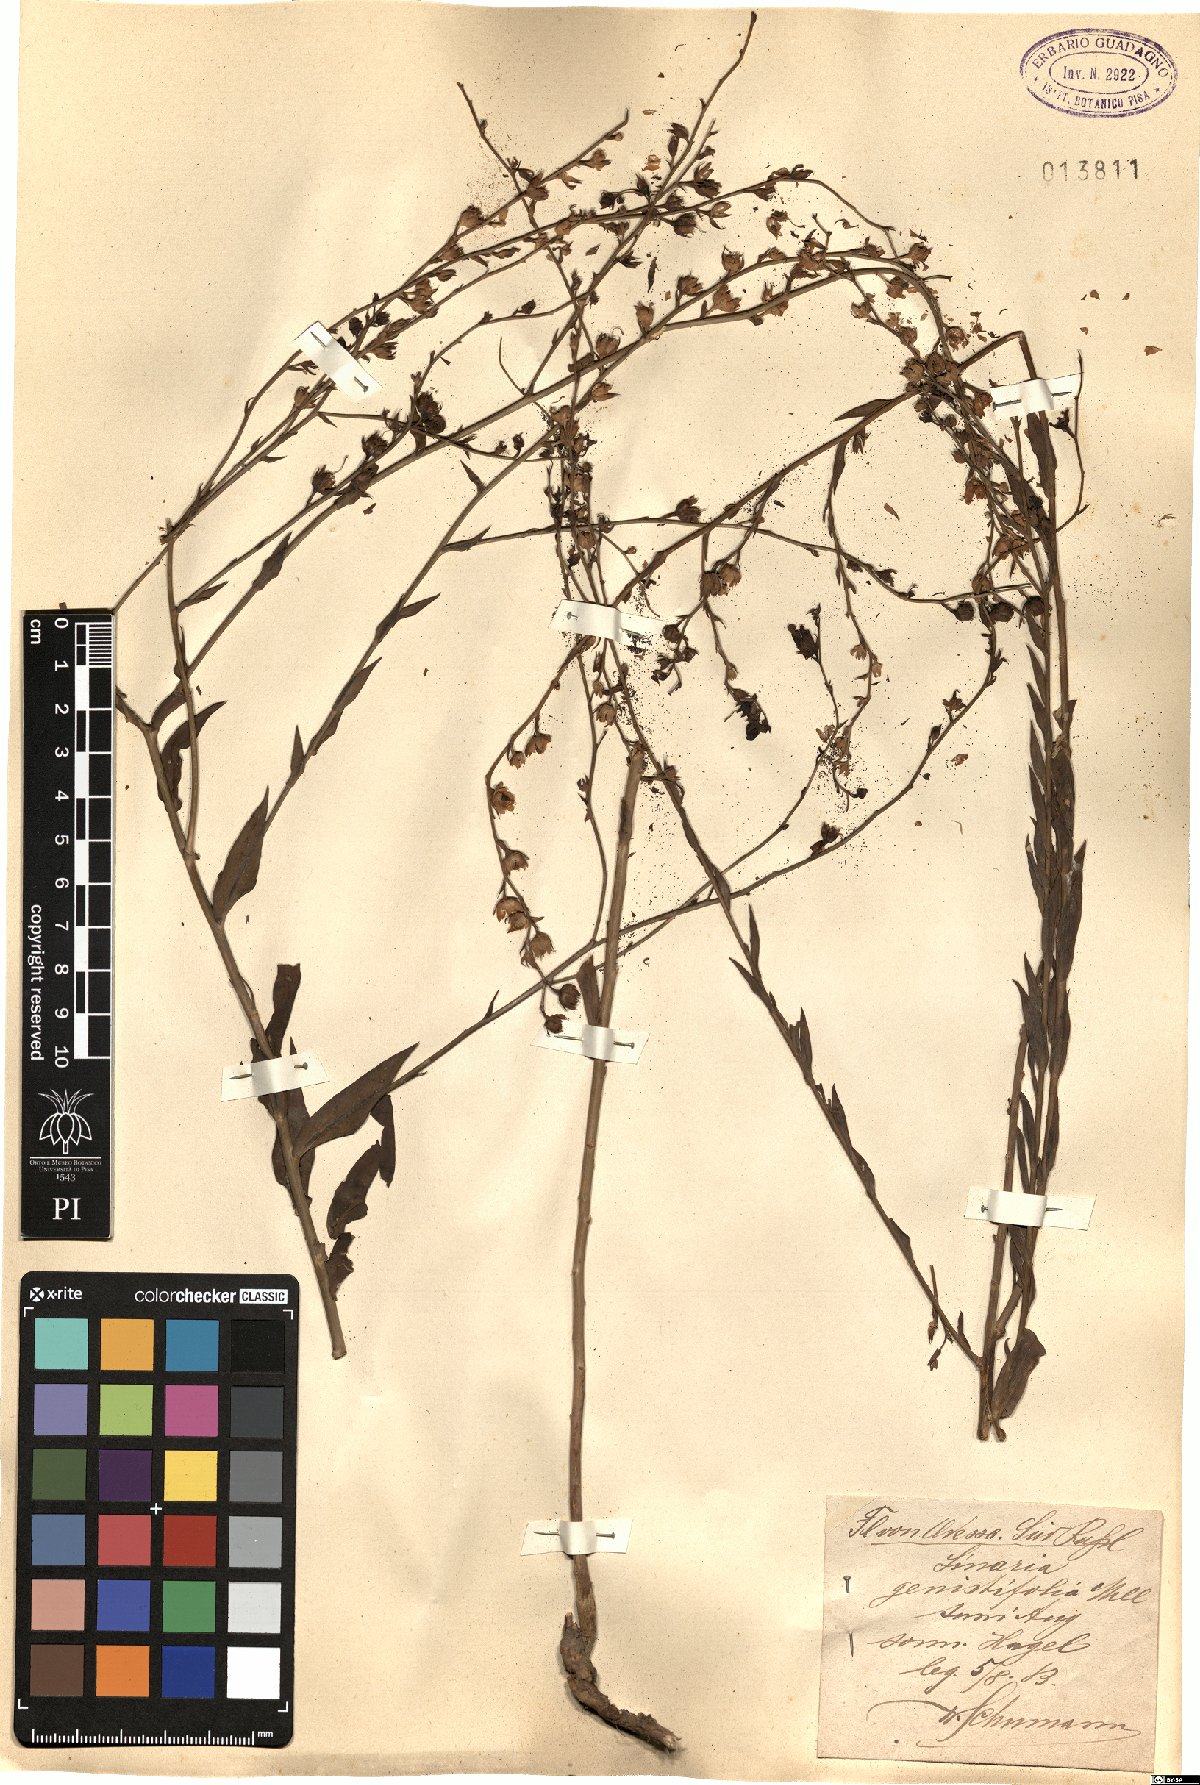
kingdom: Plantae
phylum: Tracheophyta
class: Magnoliopsida
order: Lamiales
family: Plantaginaceae
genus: Linaria
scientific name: Linaria genistifolia
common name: Broomleaf toadflax
